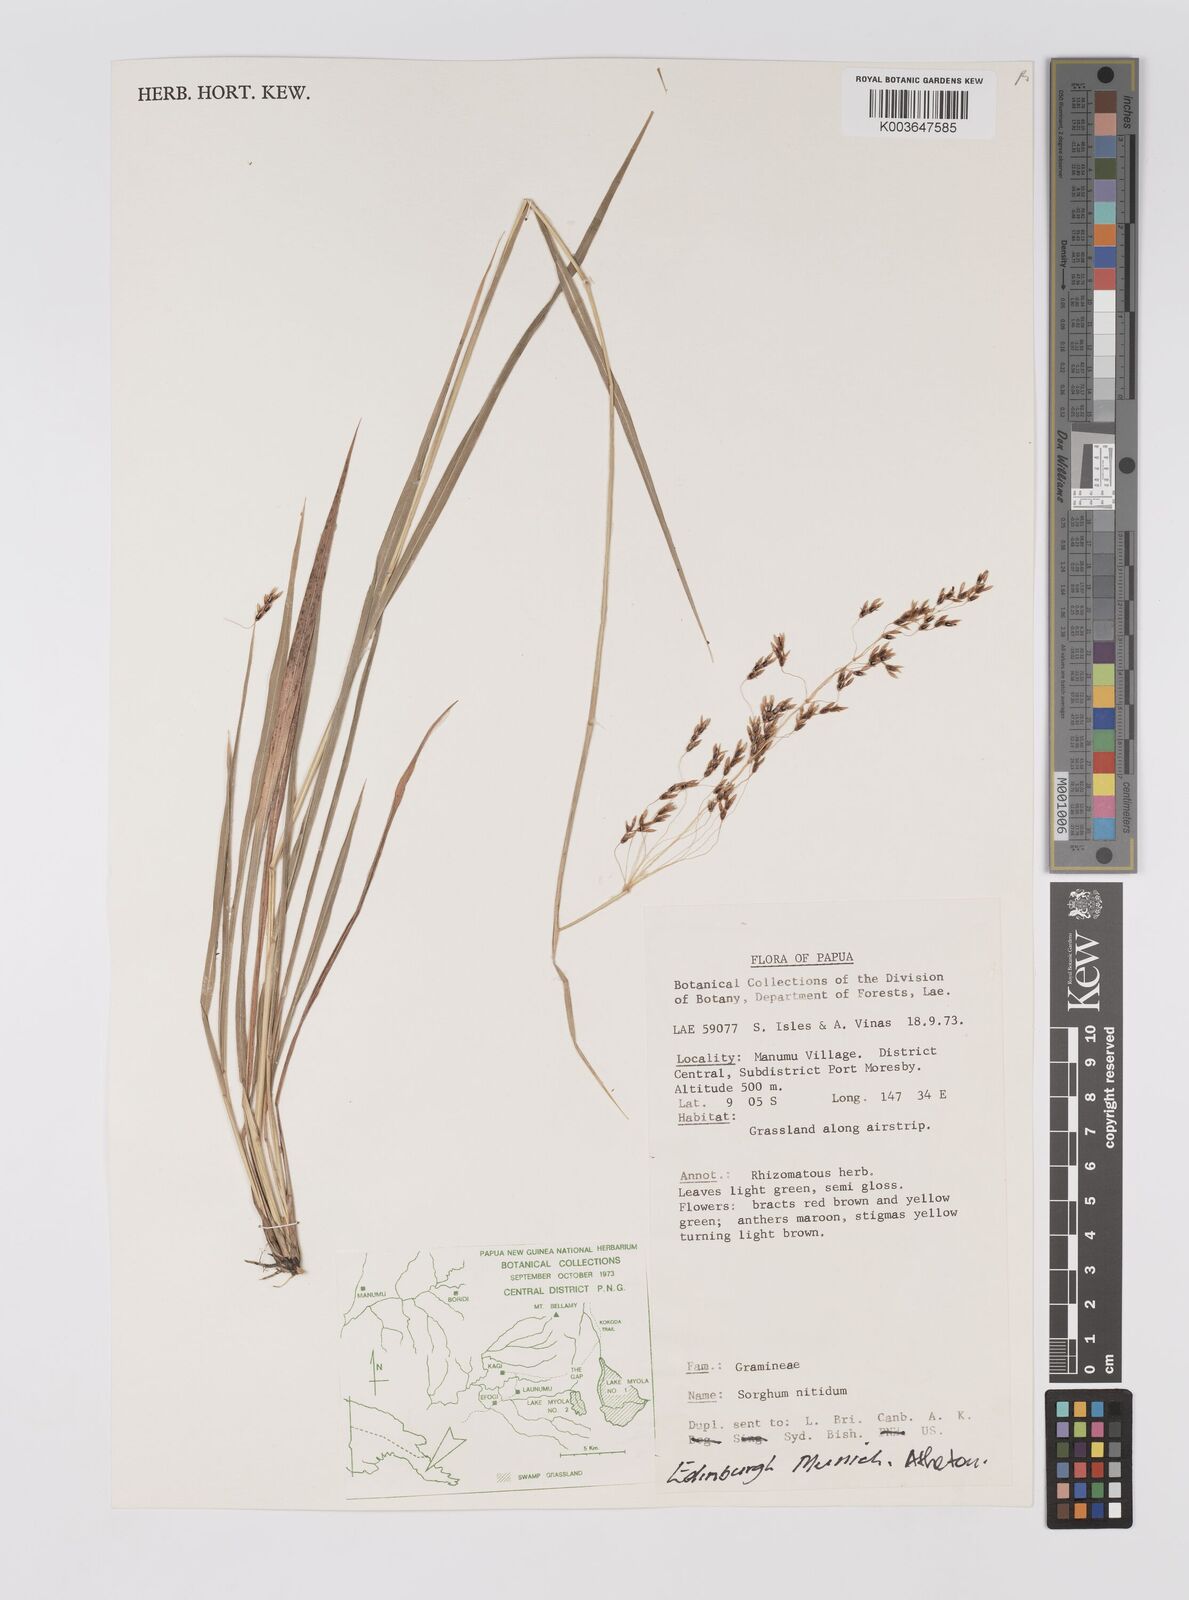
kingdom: Plantae
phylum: Tracheophyta
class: Liliopsida
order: Poales
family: Poaceae
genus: Sorghum
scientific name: Sorghum nitidum
